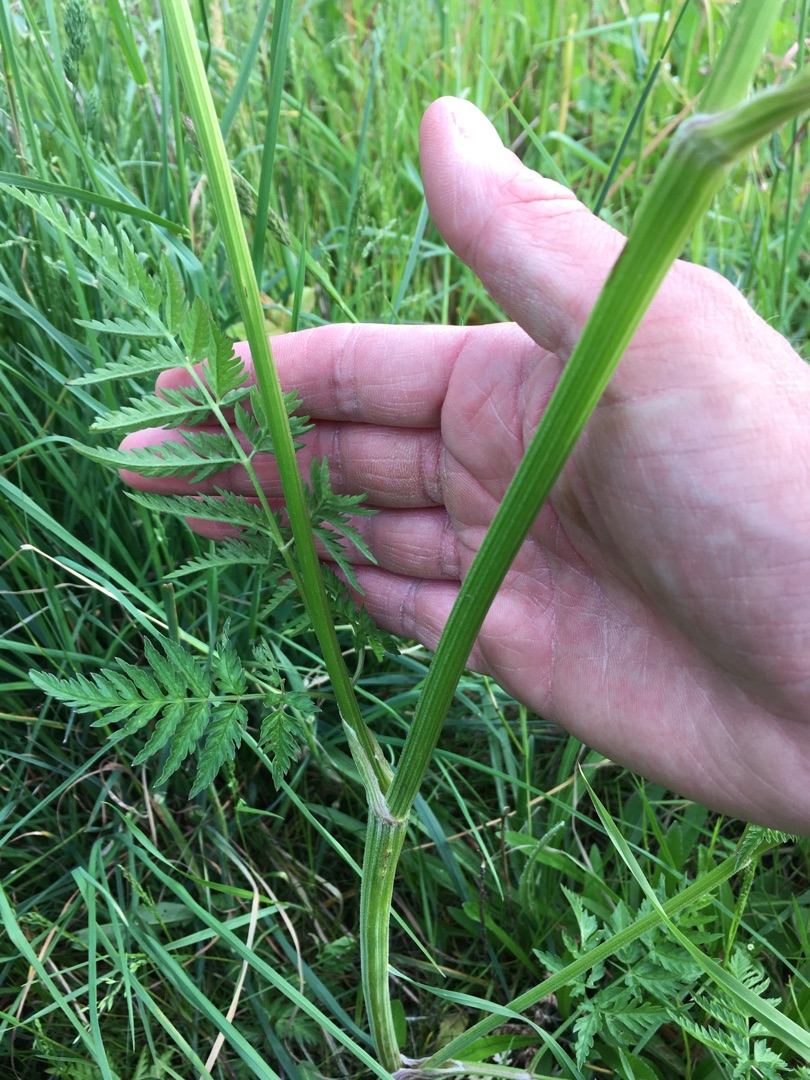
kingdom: Plantae
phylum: Tracheophyta
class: Magnoliopsida
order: Apiales
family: Apiaceae
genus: Anthriscus
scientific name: Anthriscus sylvestris
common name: Vild kørvel
